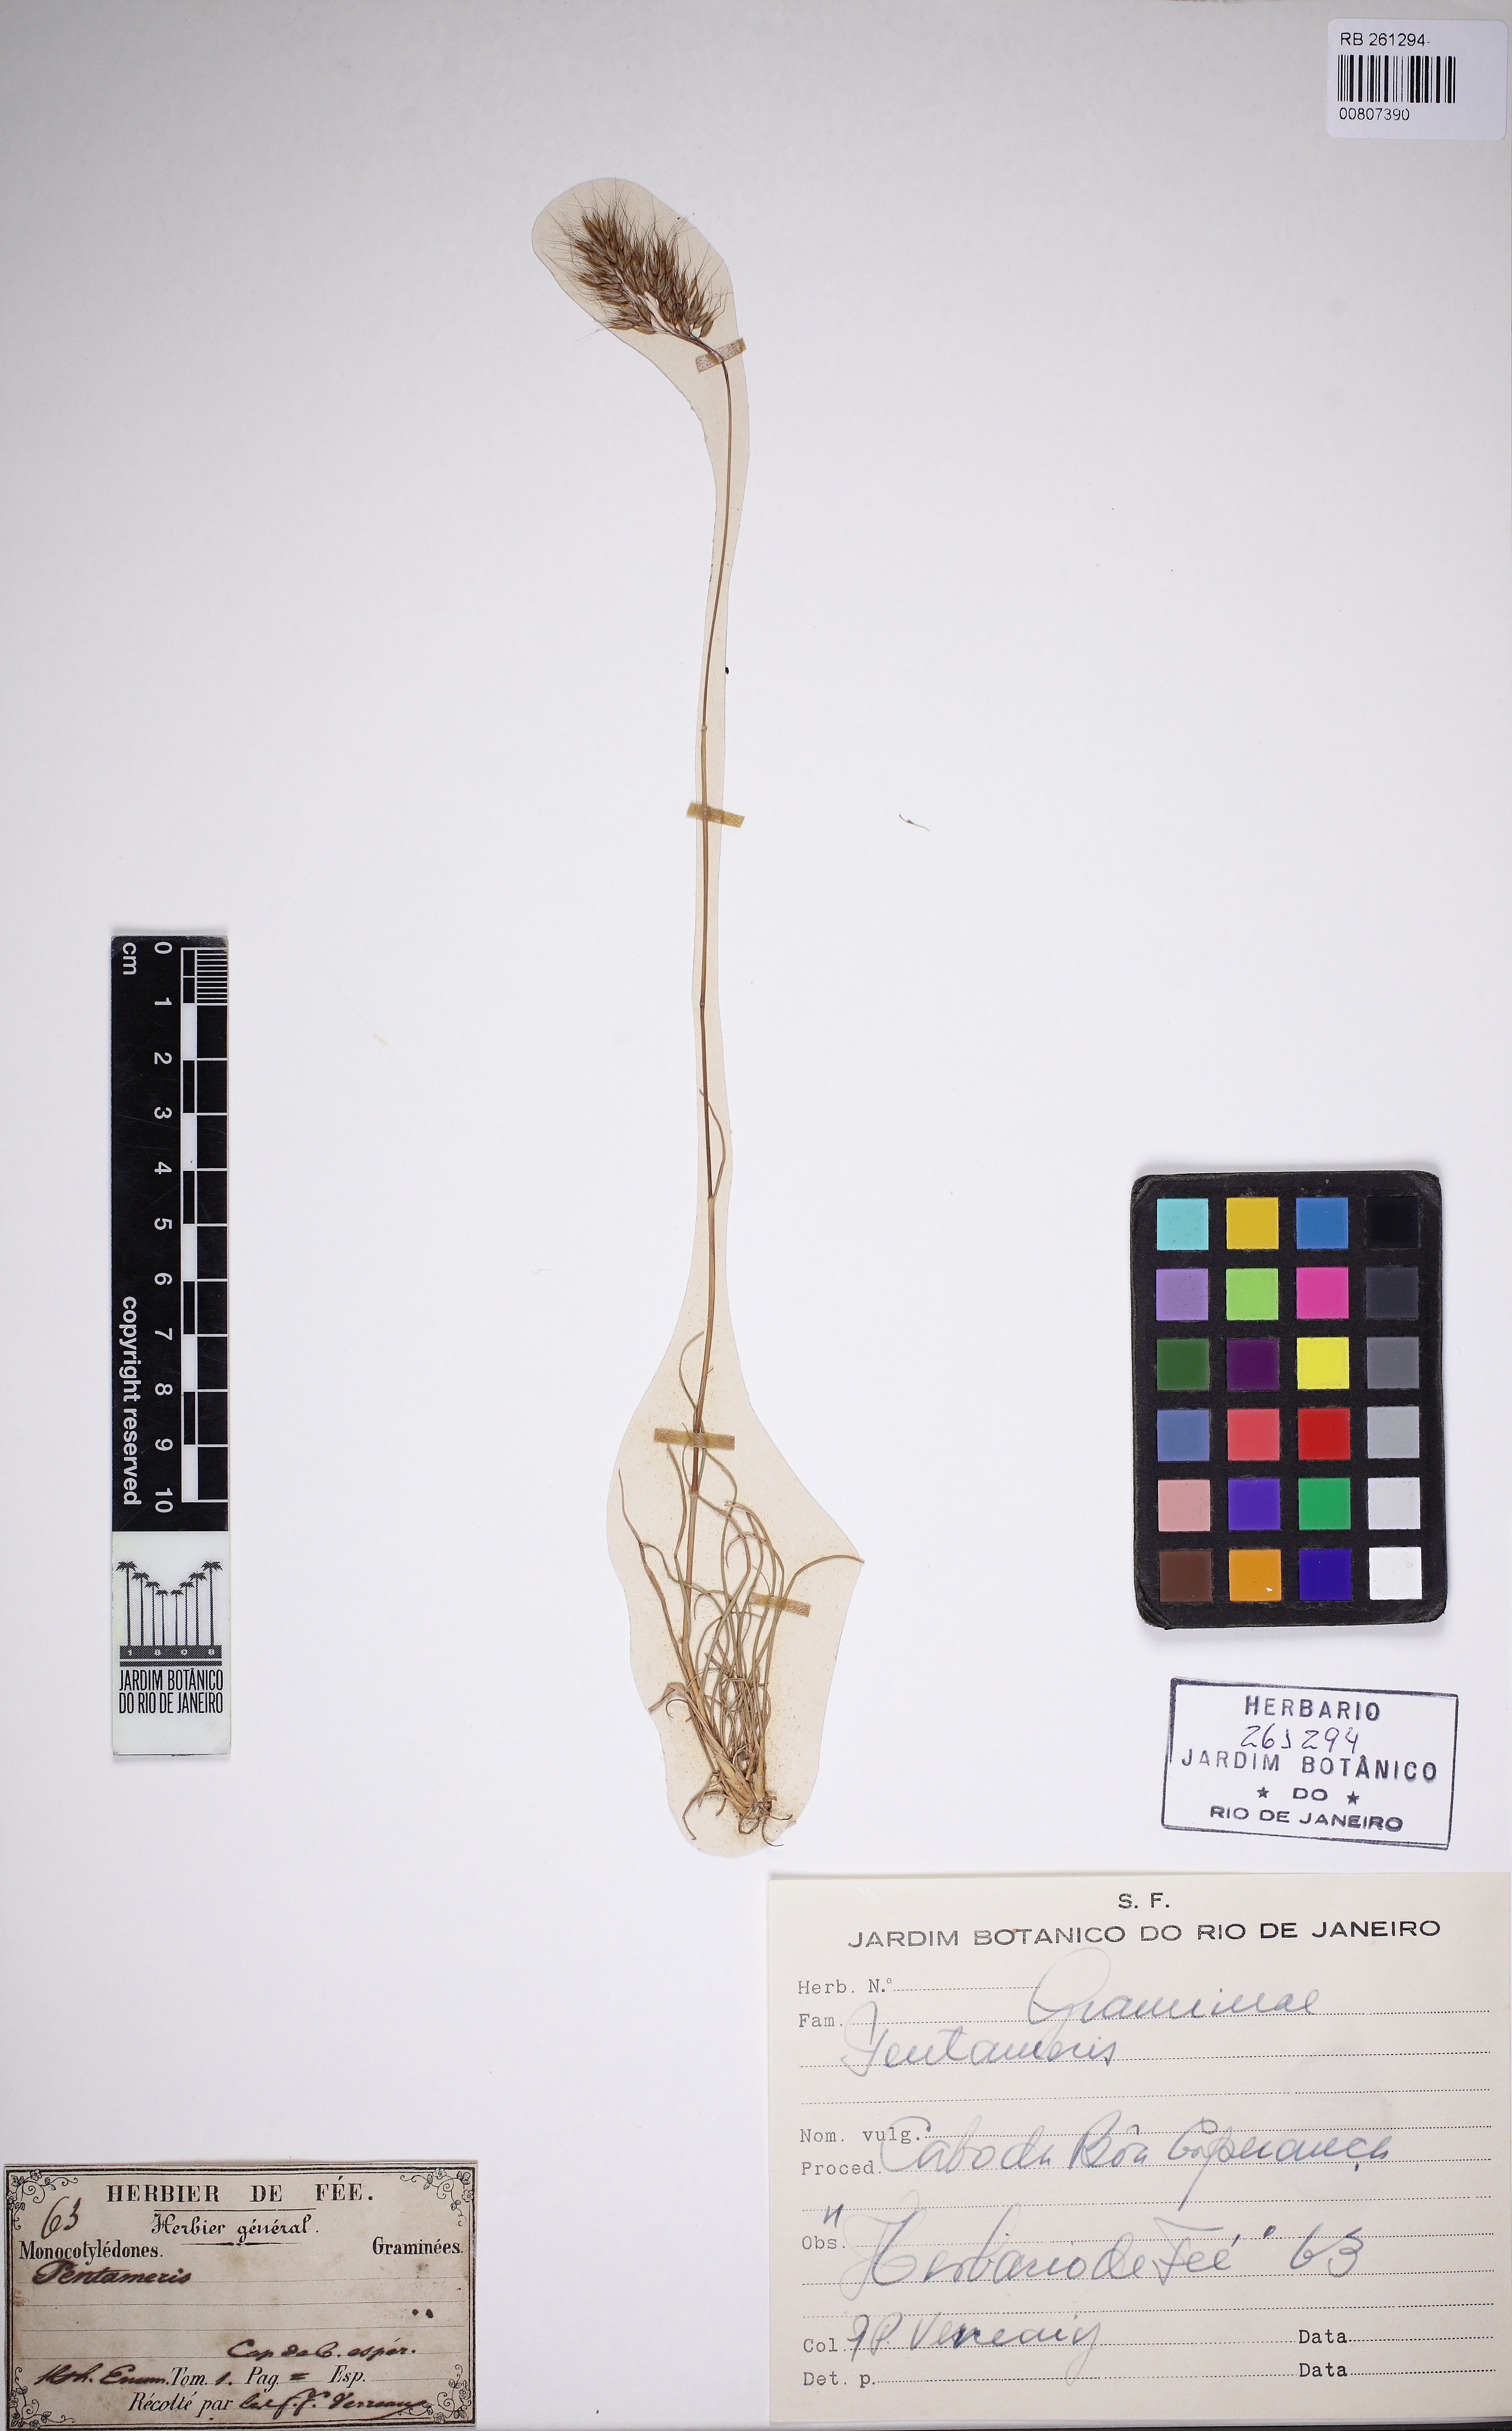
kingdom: Plantae
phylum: Tracheophyta
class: Liliopsida
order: Poales
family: Poaceae
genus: Pentameris
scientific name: Pentameris
